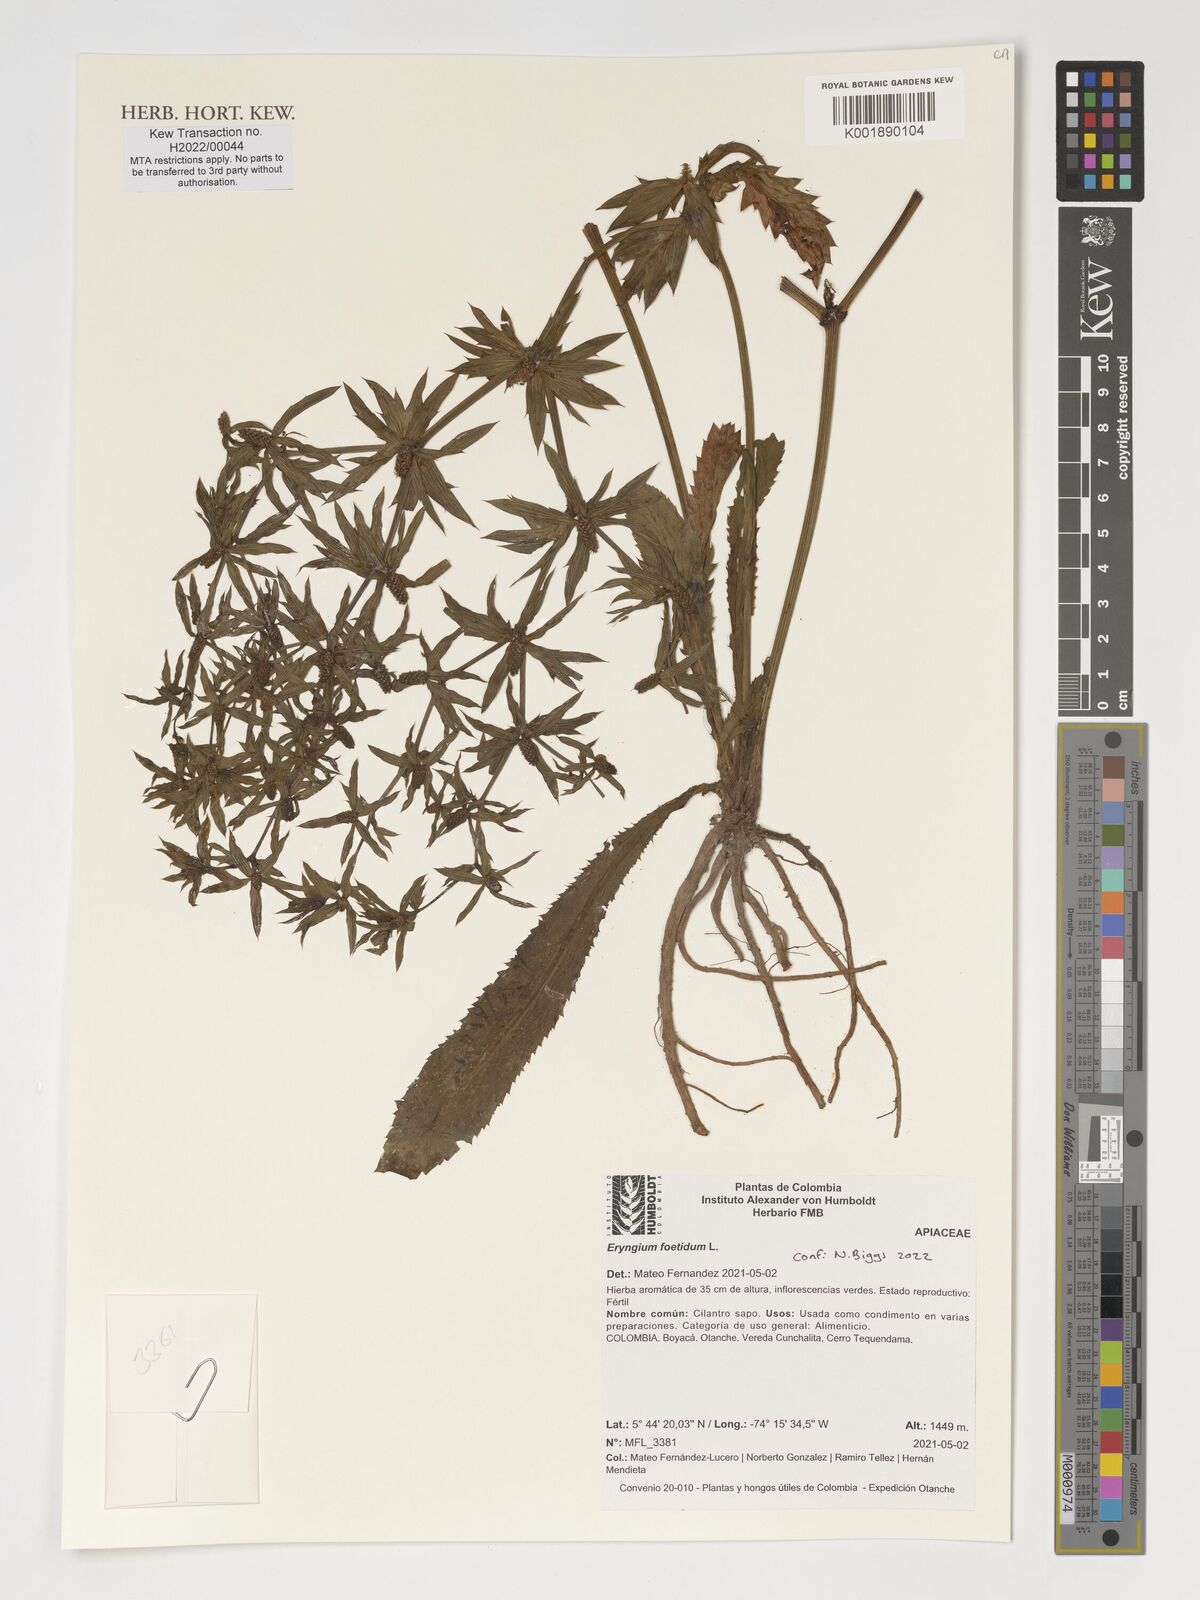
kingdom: Plantae
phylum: Tracheophyta
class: Magnoliopsida
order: Apiales
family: Apiaceae
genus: Eryngium
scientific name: Eryngium foetidum
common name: Fitweed
